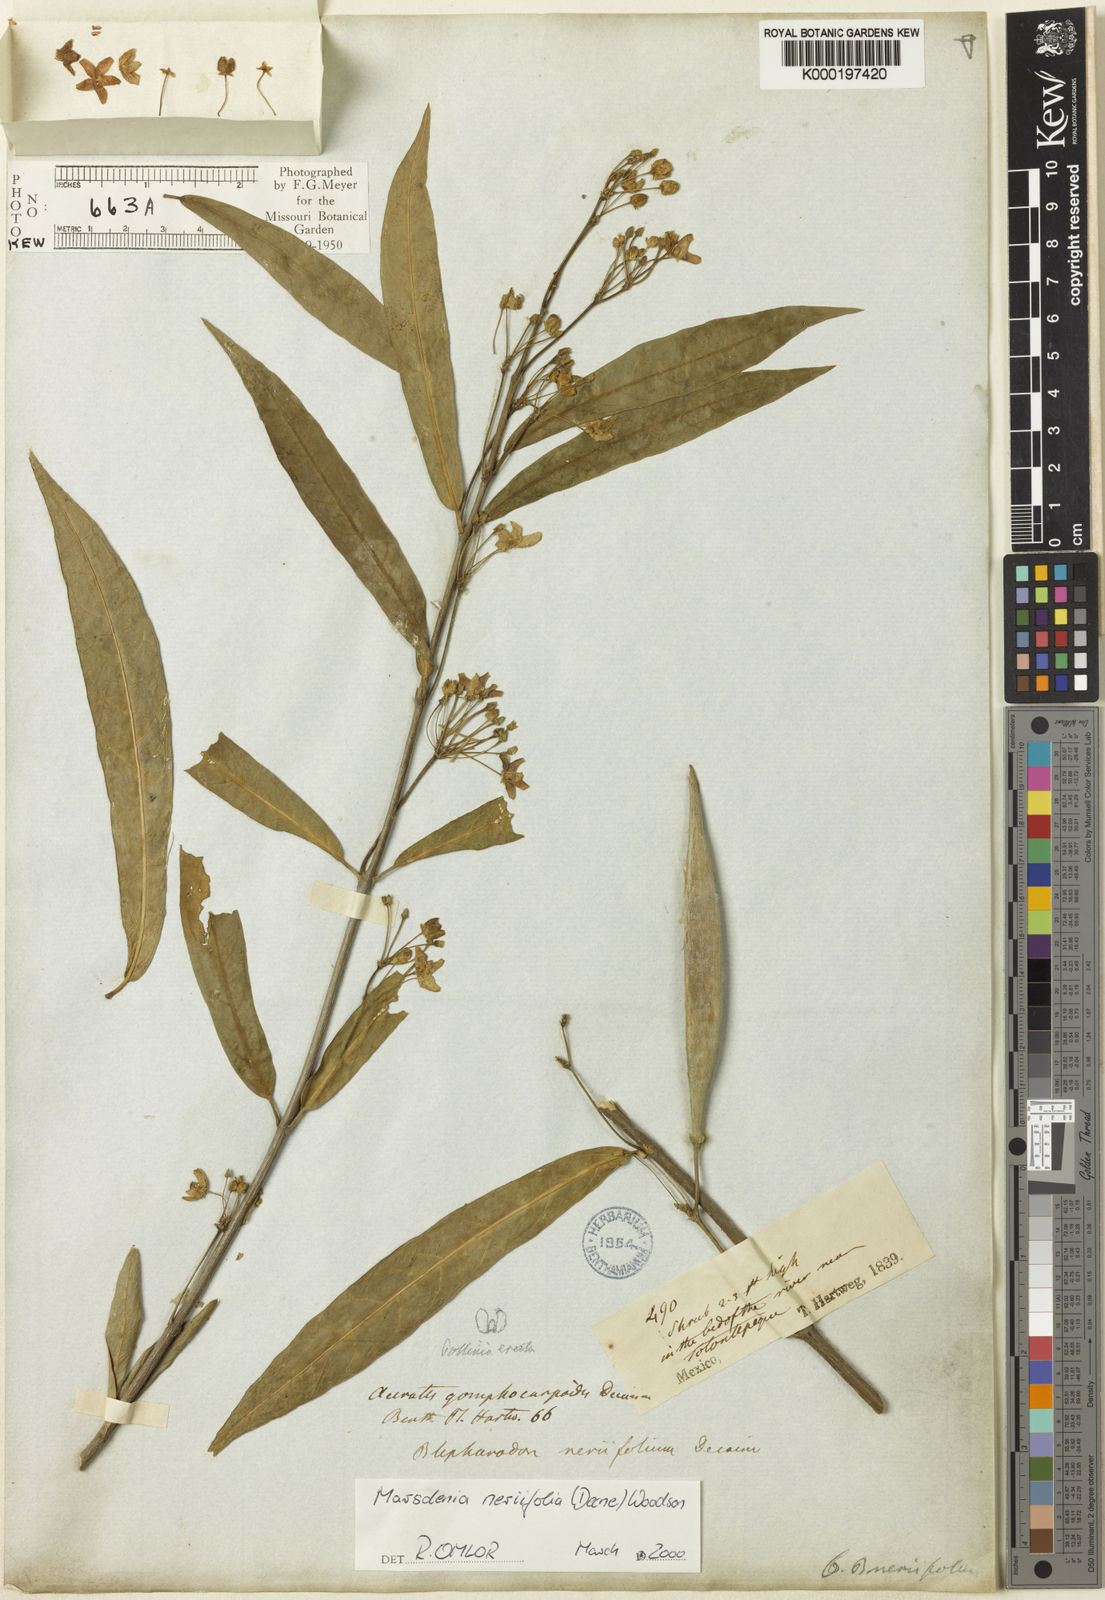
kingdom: Plantae
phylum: Tracheophyta
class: Magnoliopsida
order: Gentianales
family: Apocynaceae
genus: Ruehssia
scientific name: Ruehssia neriifolia
